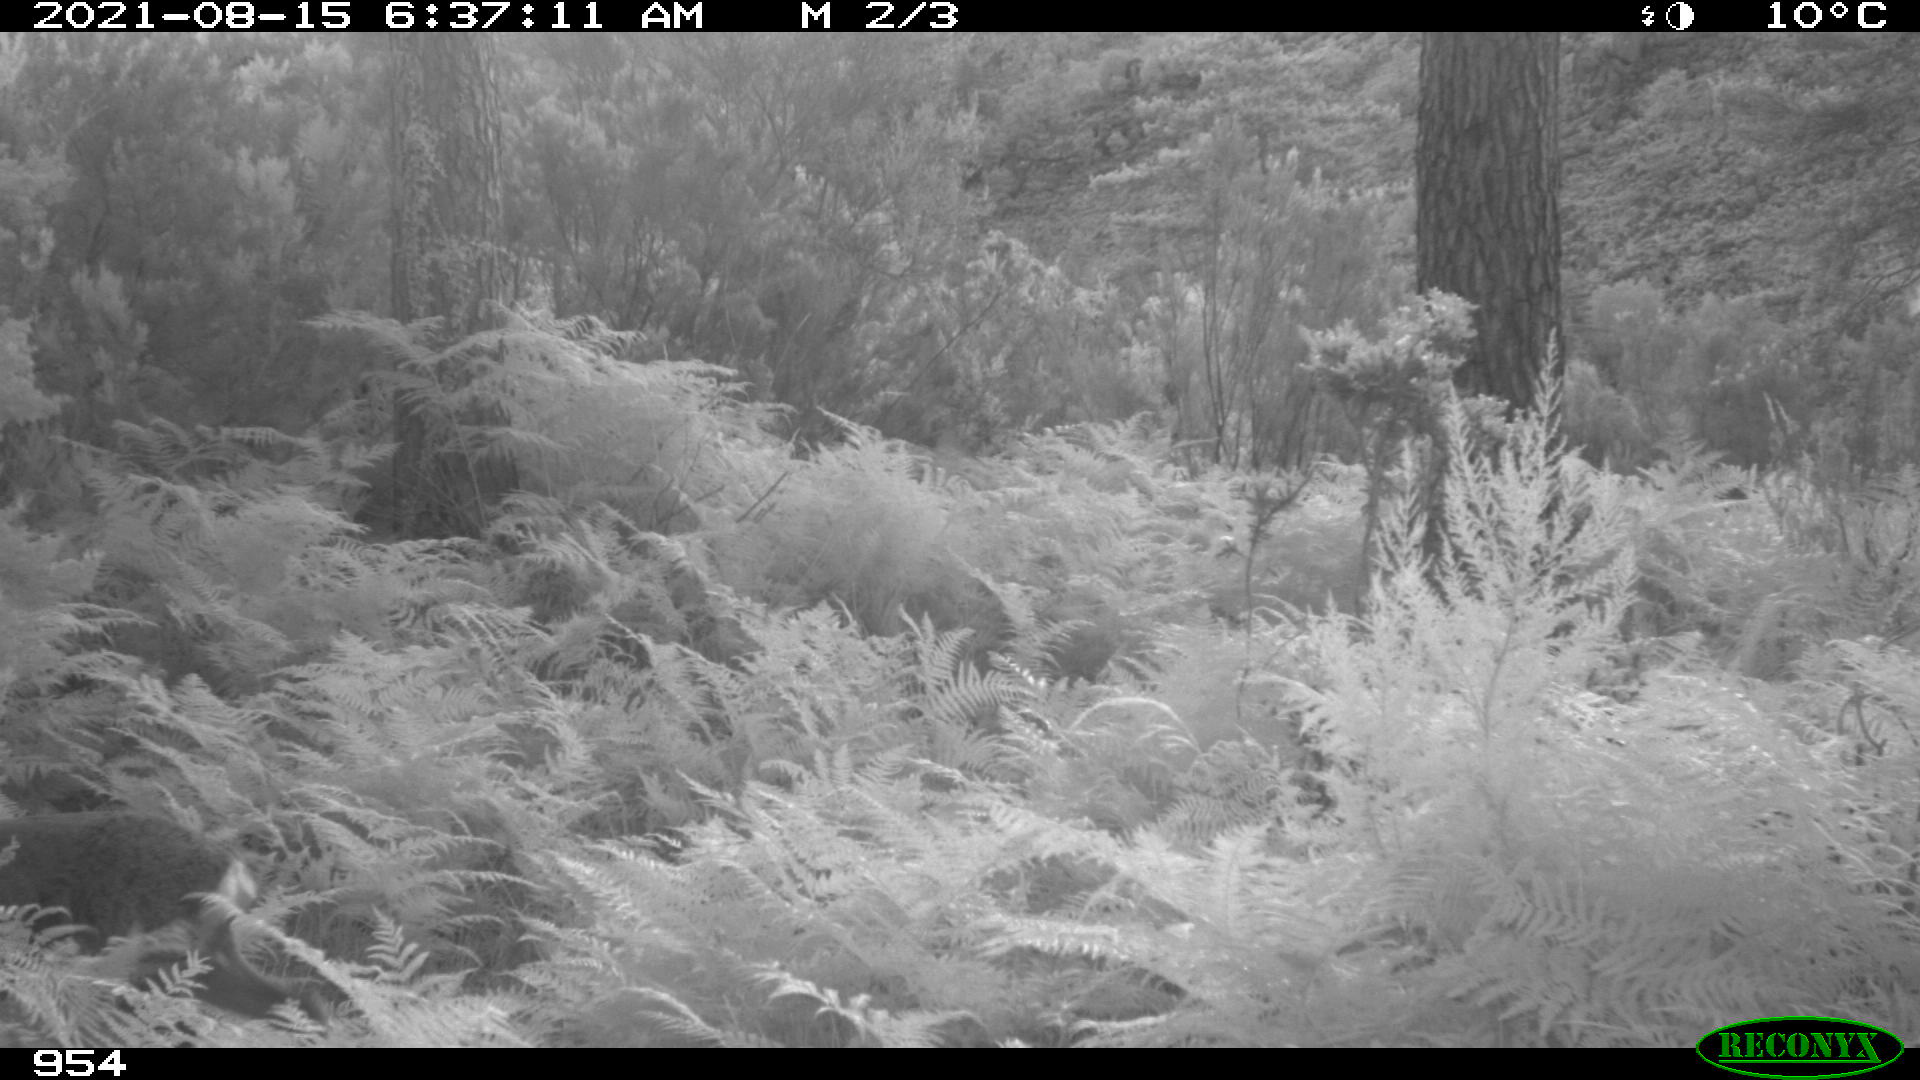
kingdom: Animalia
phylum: Chordata
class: Mammalia
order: Artiodactyla
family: Cervidae
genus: Capreolus
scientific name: Capreolus capreolus
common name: Western roe deer
